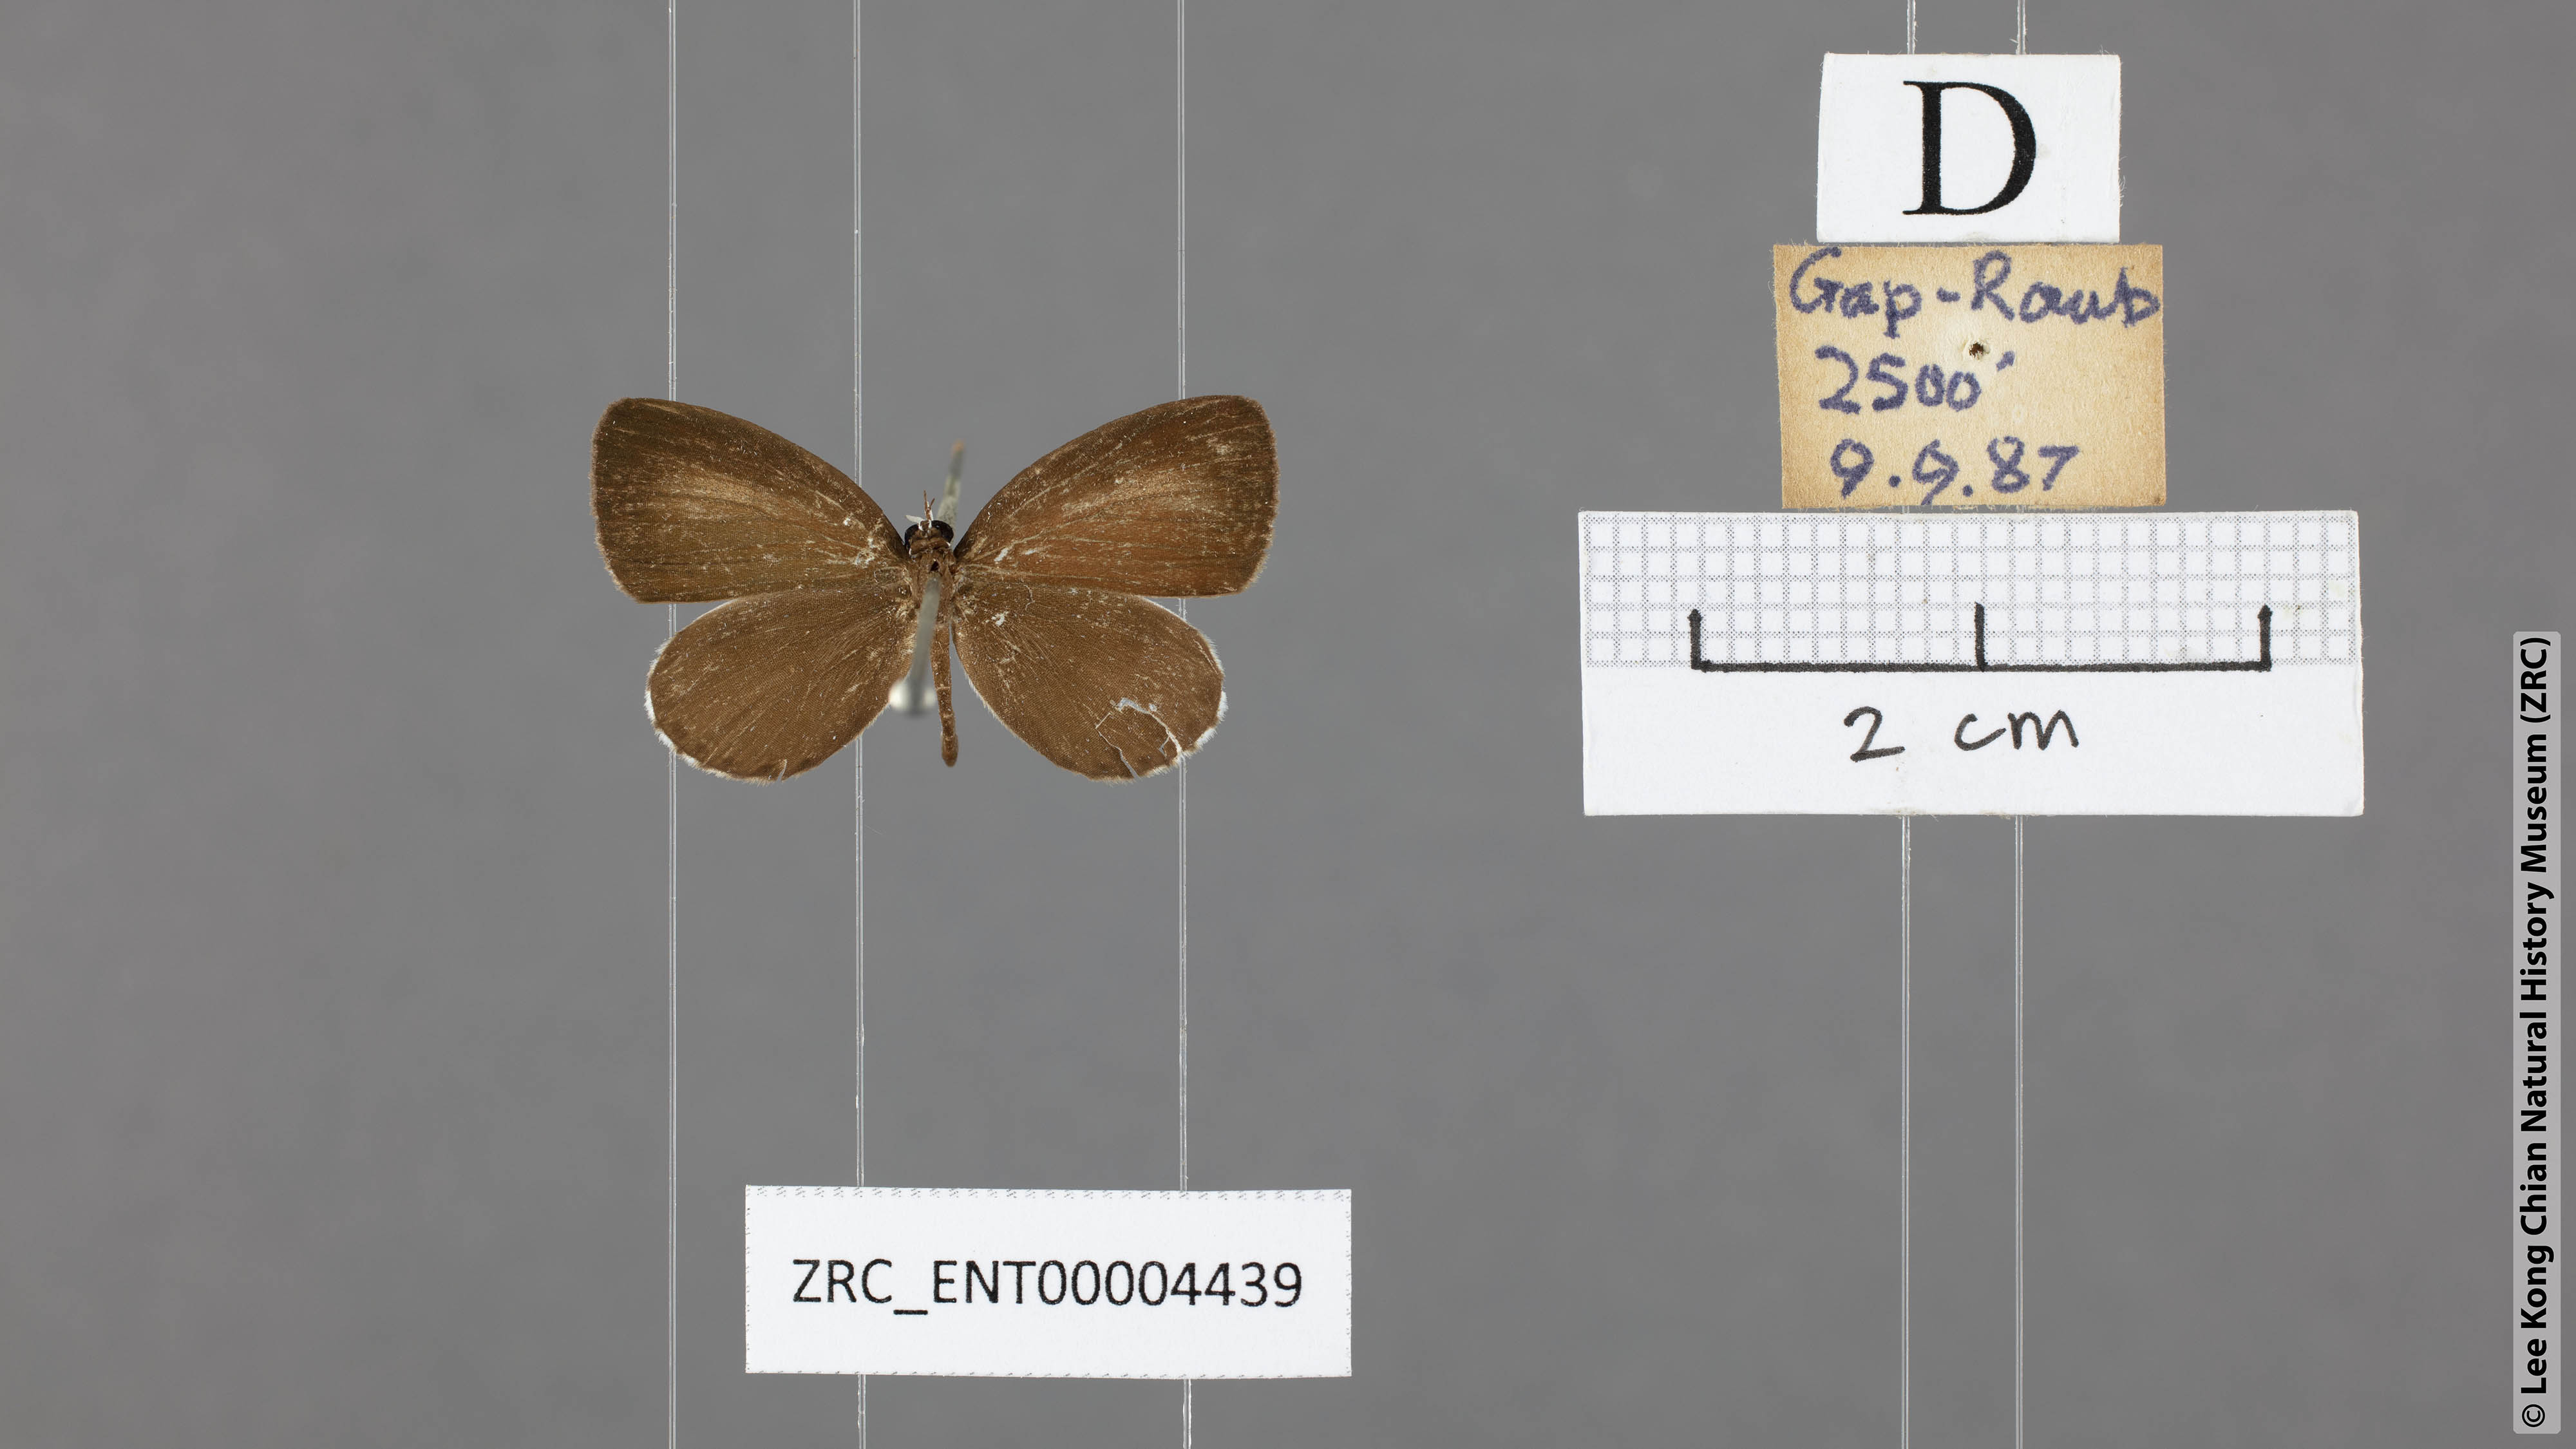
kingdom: Animalia
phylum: Arthropoda
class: Insecta
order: Lepidoptera
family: Lycaenidae
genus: Pithecops
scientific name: Pithecops corvus
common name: Forest quaker
